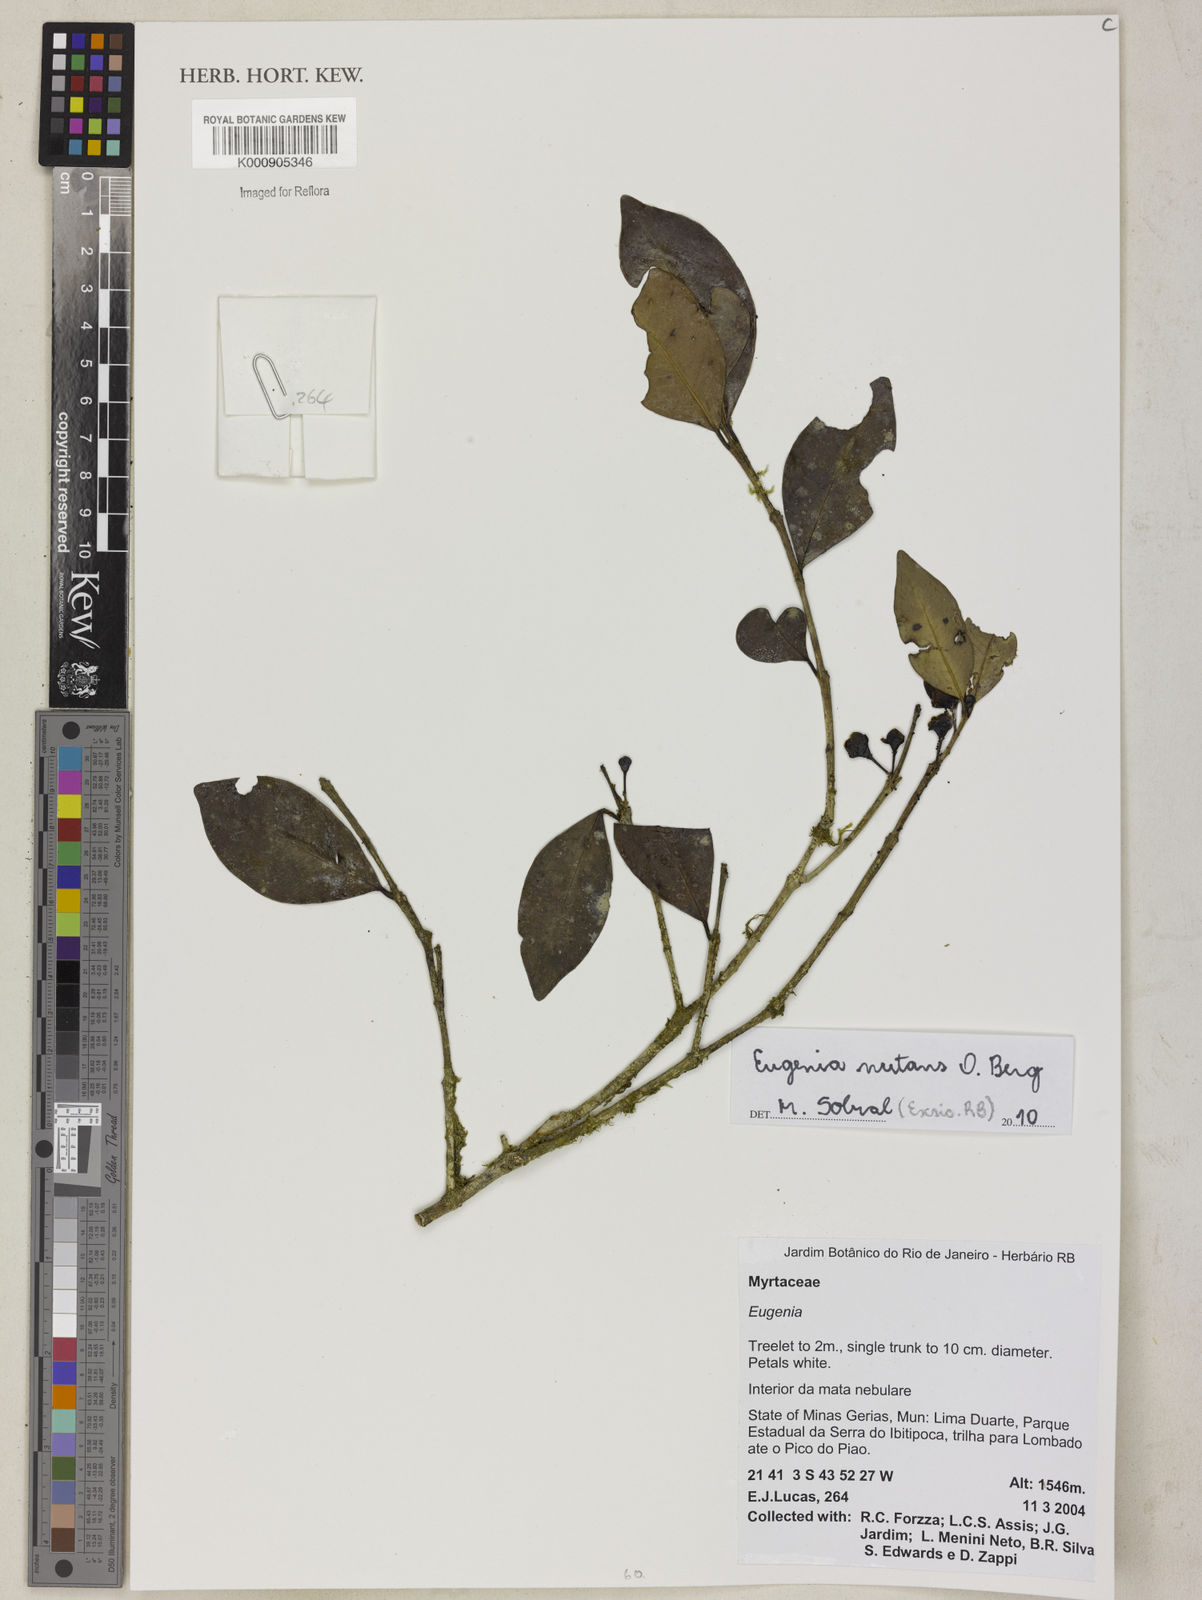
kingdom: Plantae
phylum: Tracheophyta
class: Magnoliopsida
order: Myrtales
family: Myrtaceae
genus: Eugenia
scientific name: Eugenia nutans
